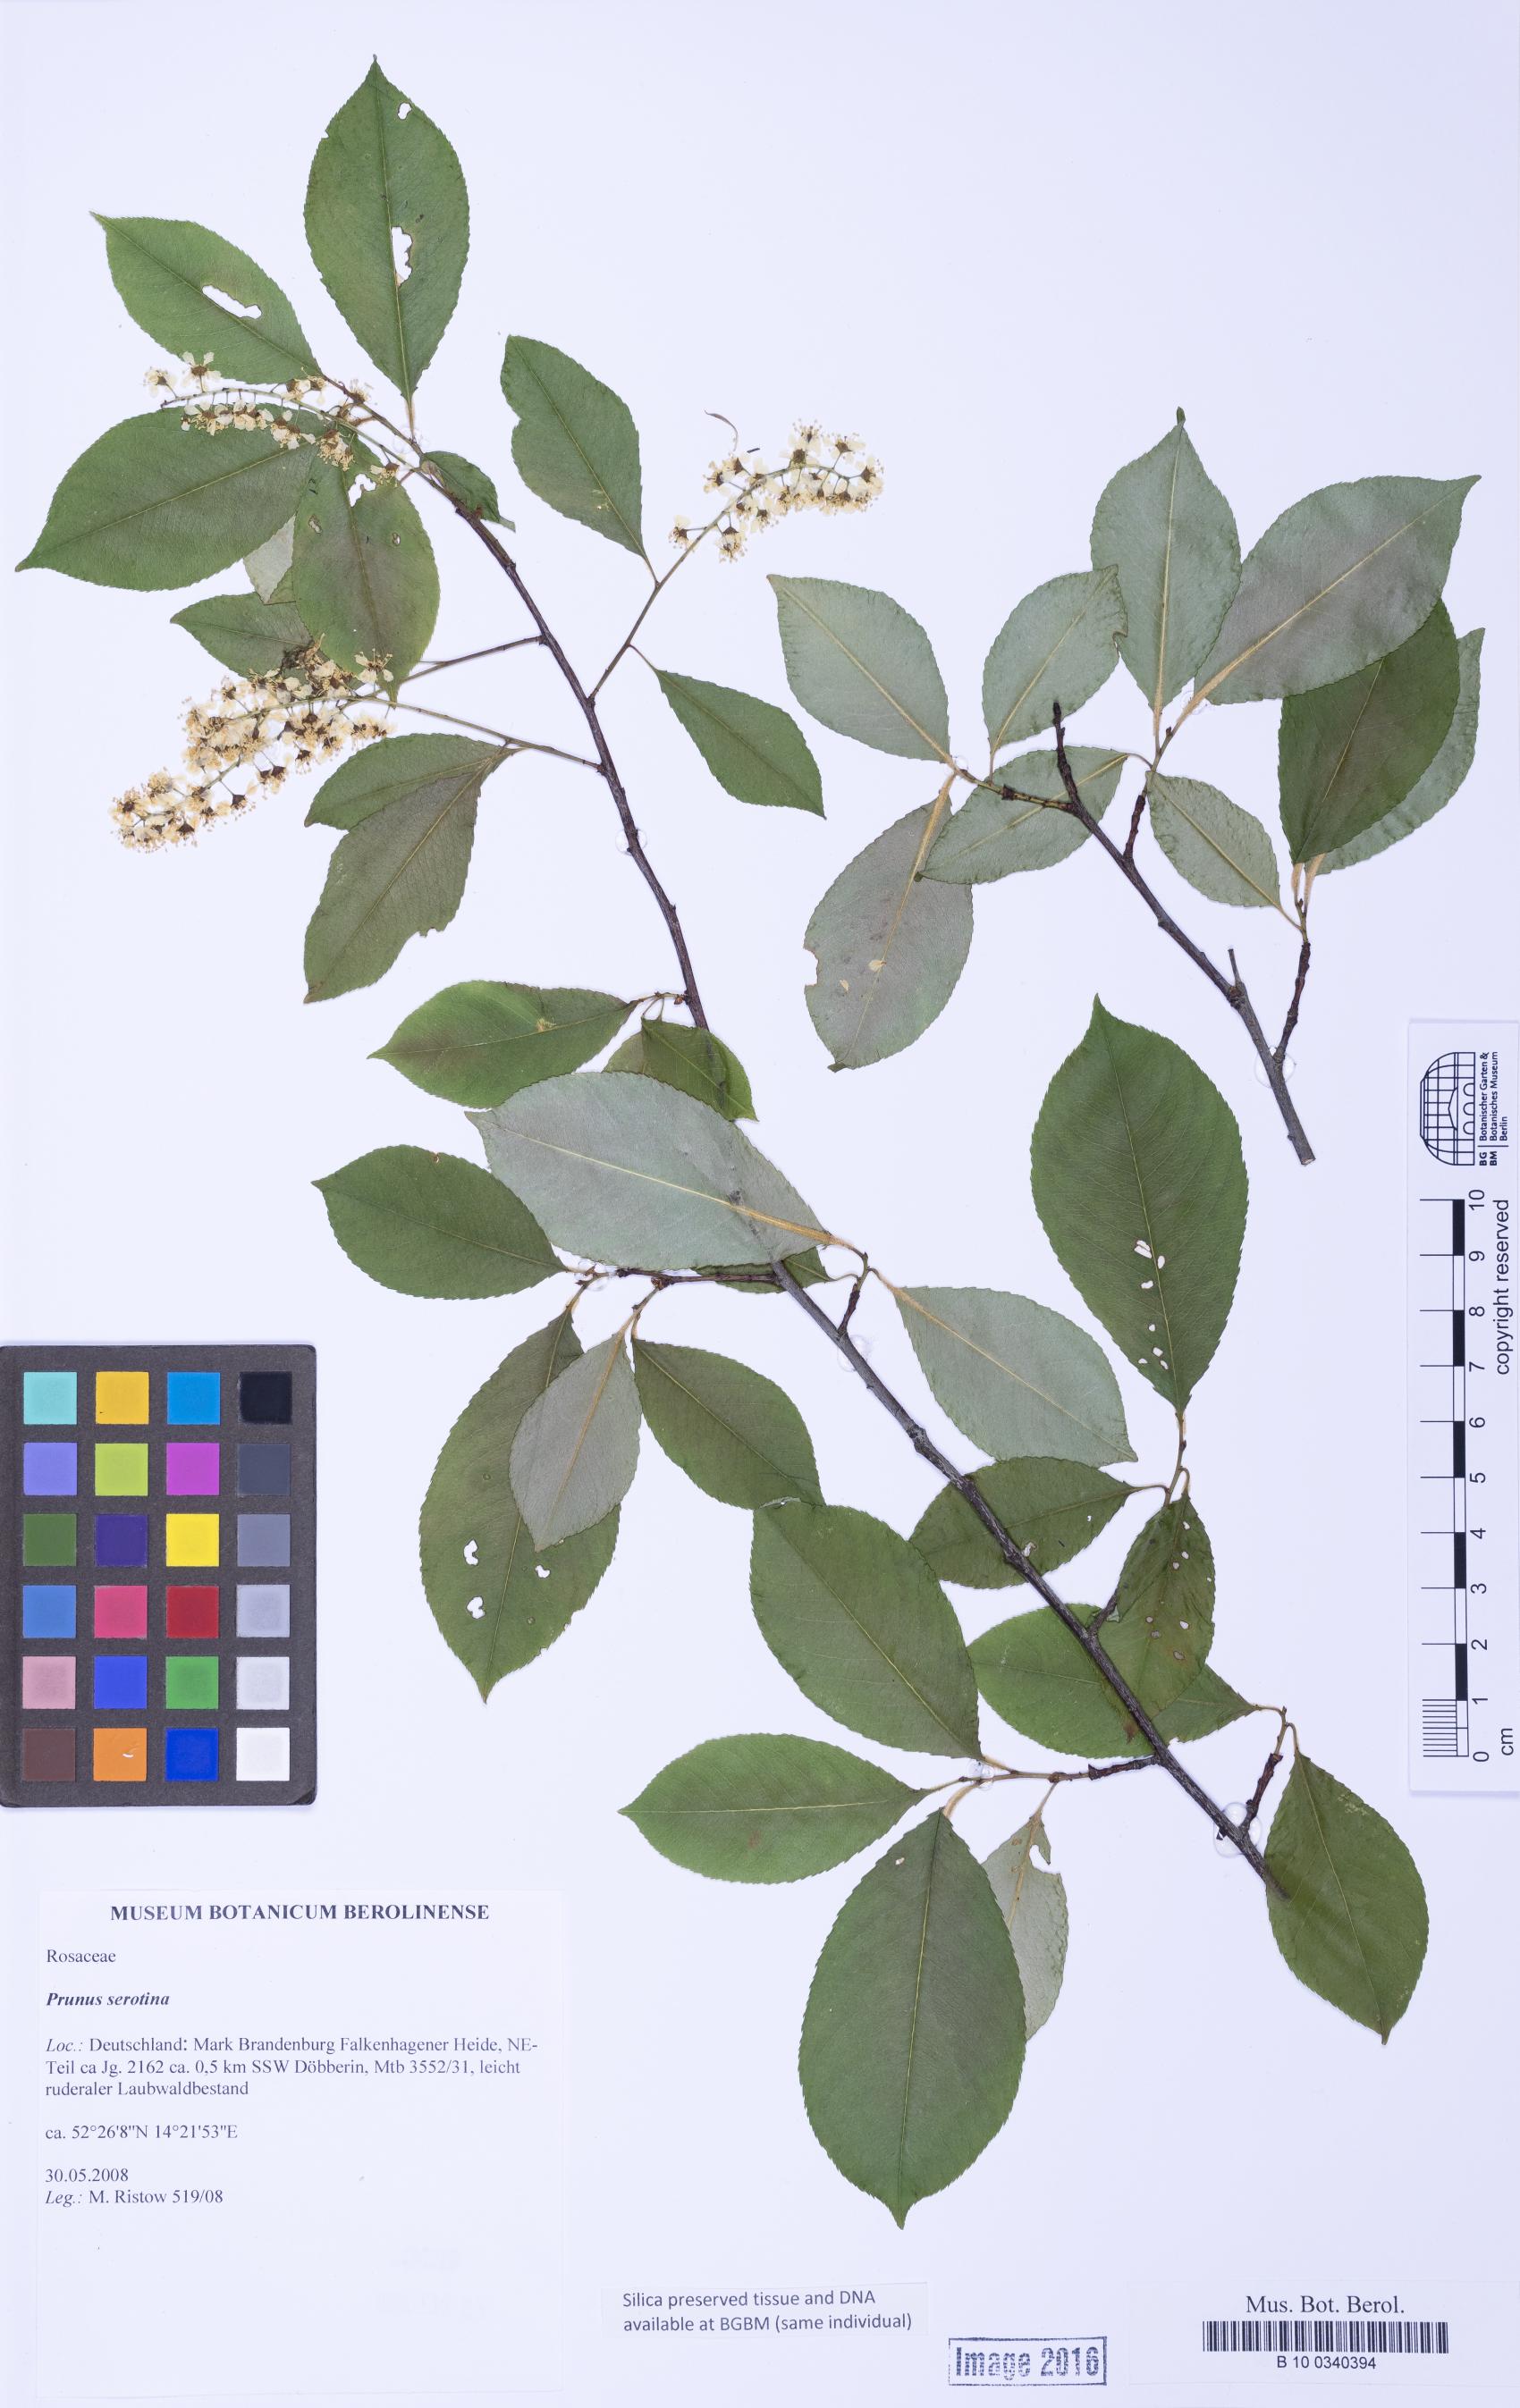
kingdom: Plantae
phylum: Tracheophyta
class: Magnoliopsida
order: Rosales
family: Rosaceae
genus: Prunus
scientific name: Prunus serotina
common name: Black cherry
